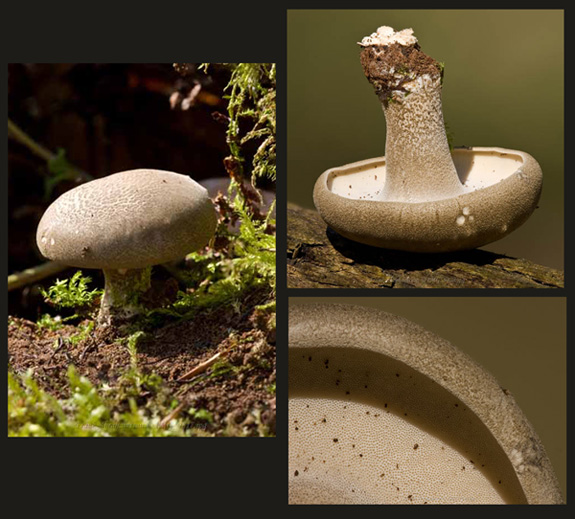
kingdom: Fungi
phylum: Basidiomycota
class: Agaricomycetes
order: Polyporales
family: Polyporaceae
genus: Lentinus
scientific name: Lentinus substrictus
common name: forårs-stilkporesvamp
